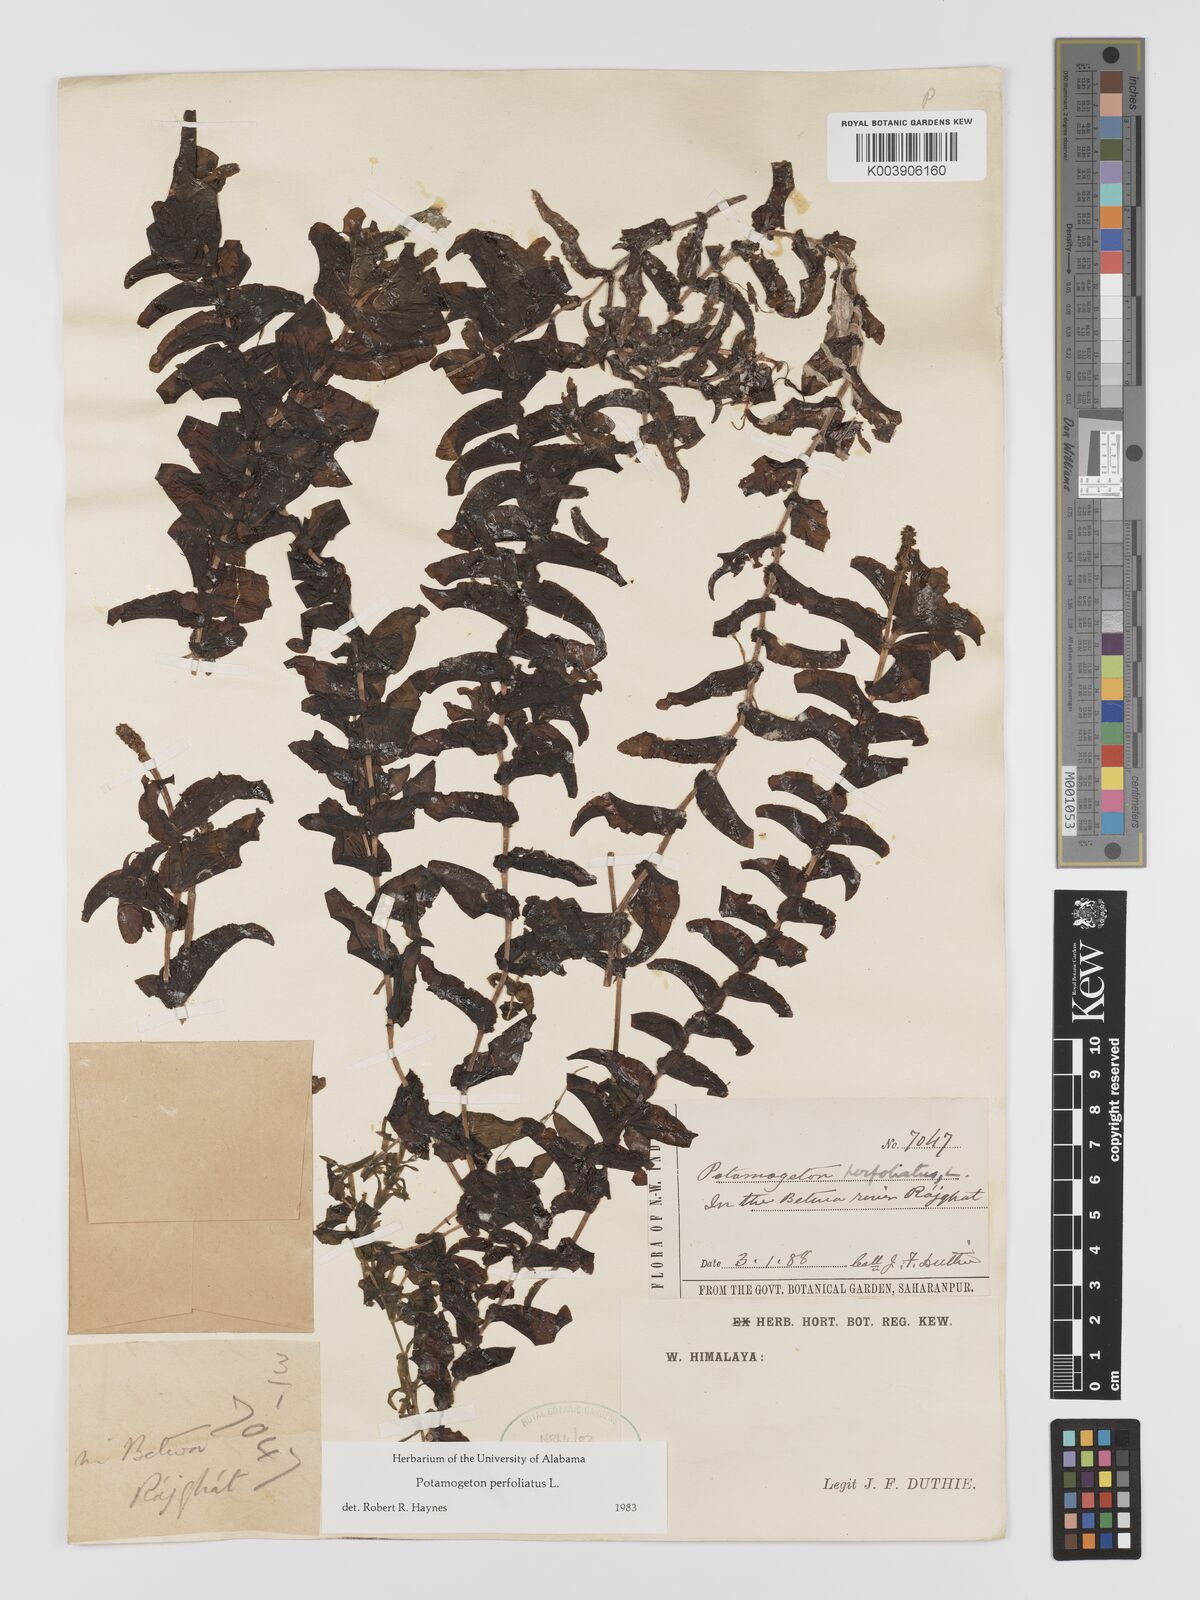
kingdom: Plantae
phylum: Tracheophyta
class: Liliopsida
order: Alismatales
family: Potamogetonaceae
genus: Stuckenia
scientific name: Stuckenia pectinata
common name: Sago pondweed
